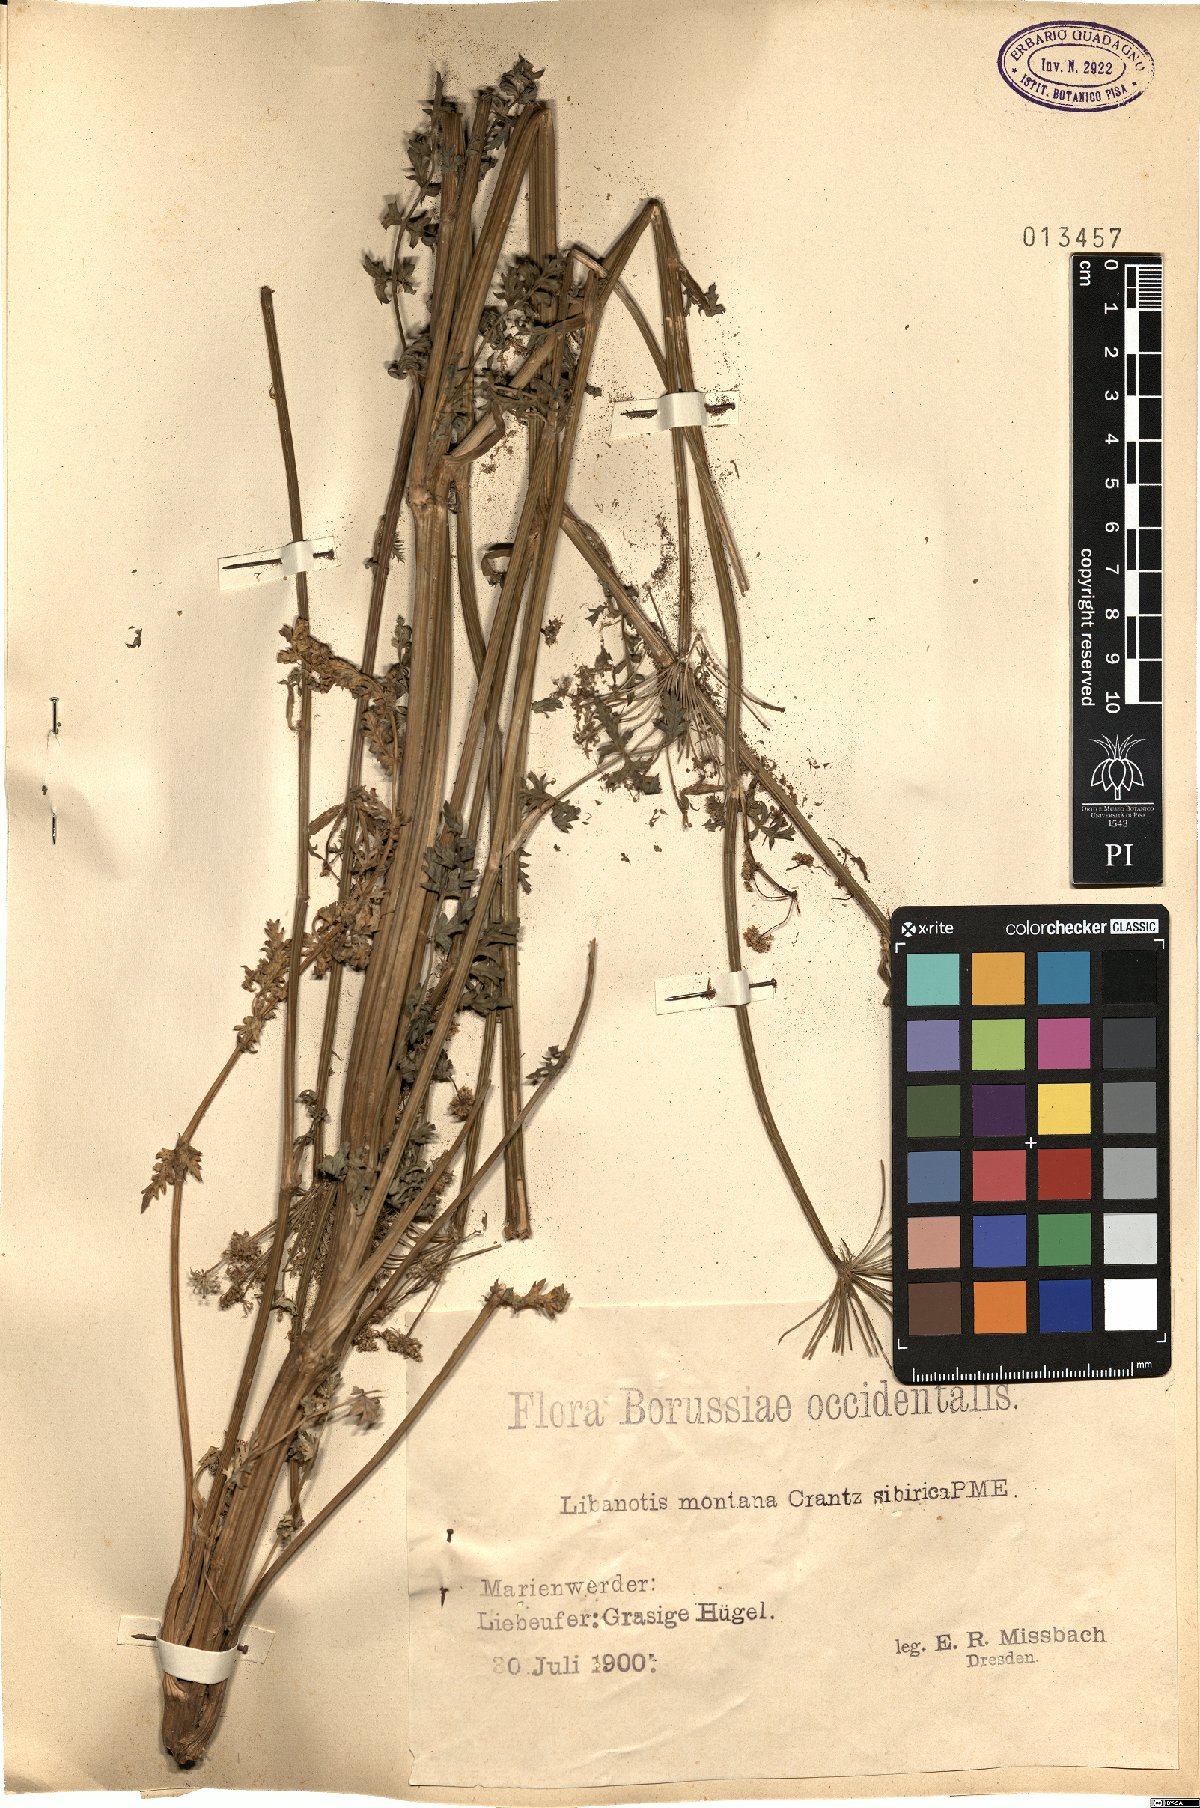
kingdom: Plantae
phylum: Tracheophyta
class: Magnoliopsida
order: Apiales
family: Apiaceae
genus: Seseli
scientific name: Seseli libanotis
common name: Mooncarrot
